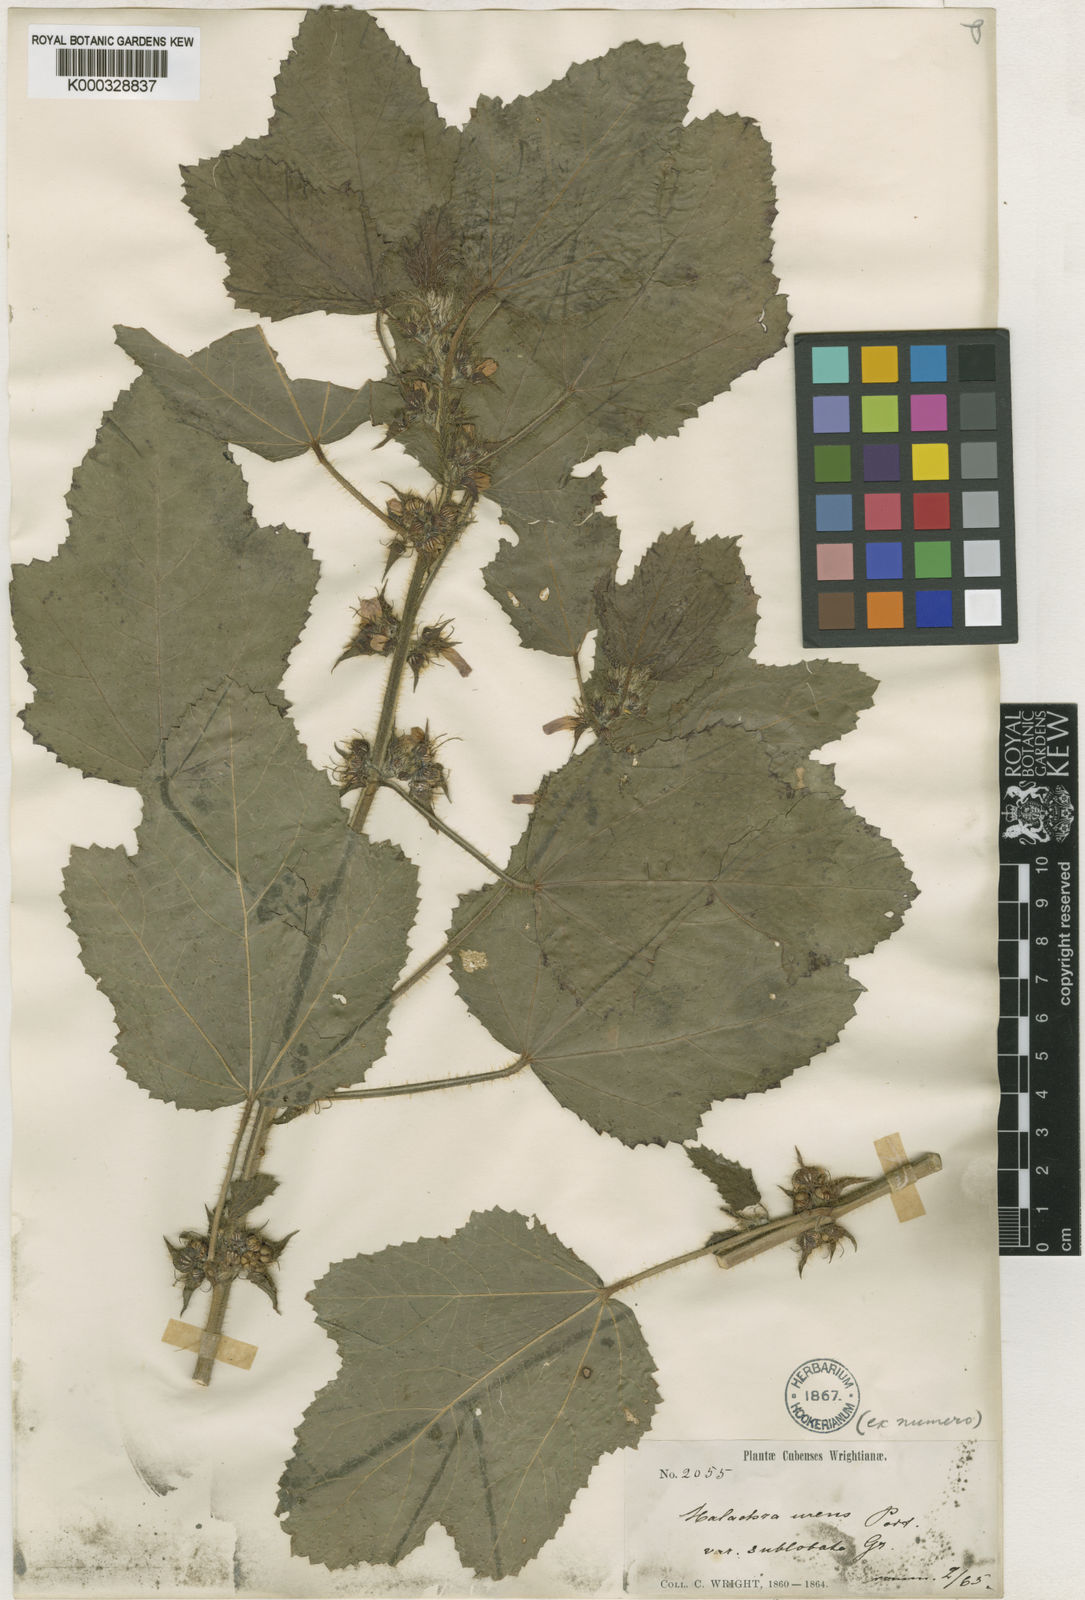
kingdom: Plantae
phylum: Tracheophyta
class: Magnoliopsida
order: Malvales
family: Malvaceae
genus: Malachra
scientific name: Malachra
